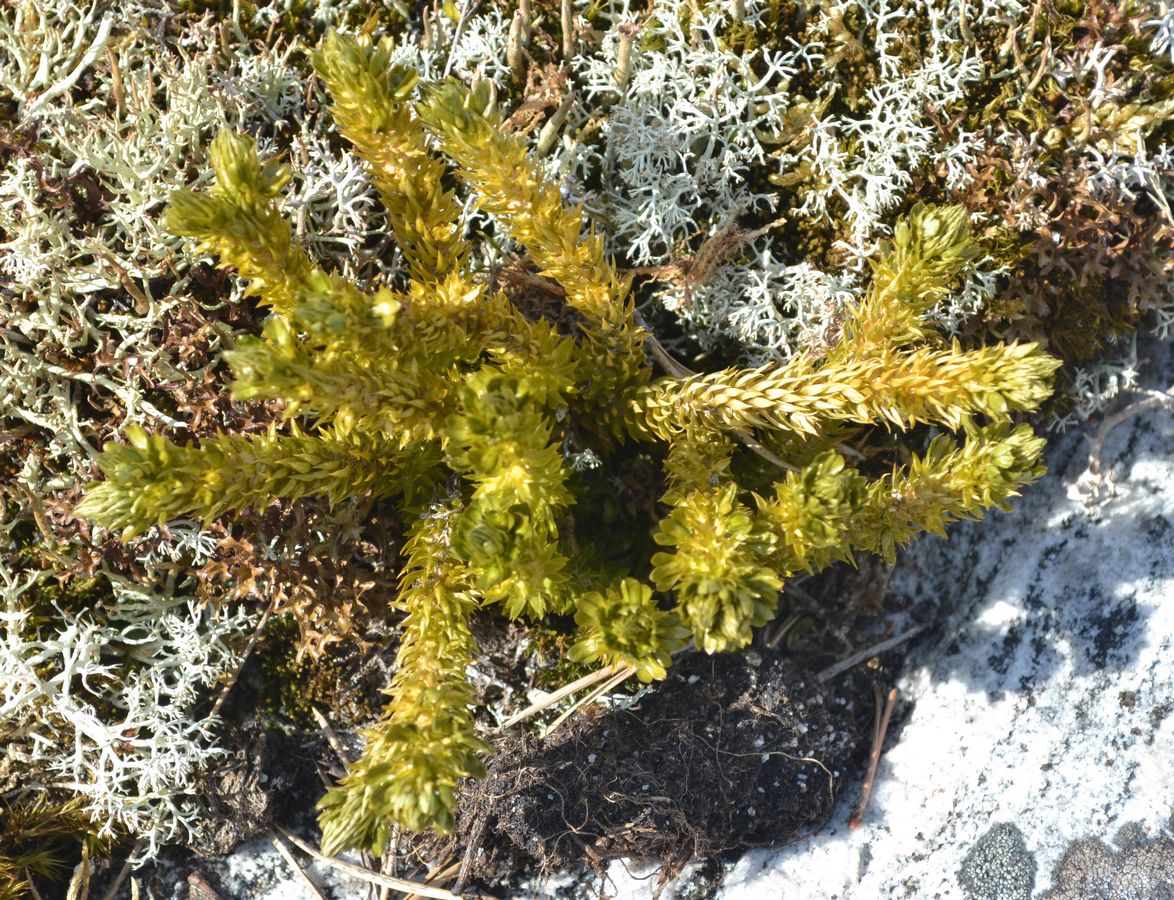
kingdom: Plantae
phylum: Tracheophyta
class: Lycopodiopsida
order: Lycopodiales
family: Lycopodiaceae
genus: Huperzia
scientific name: Huperzia selago
